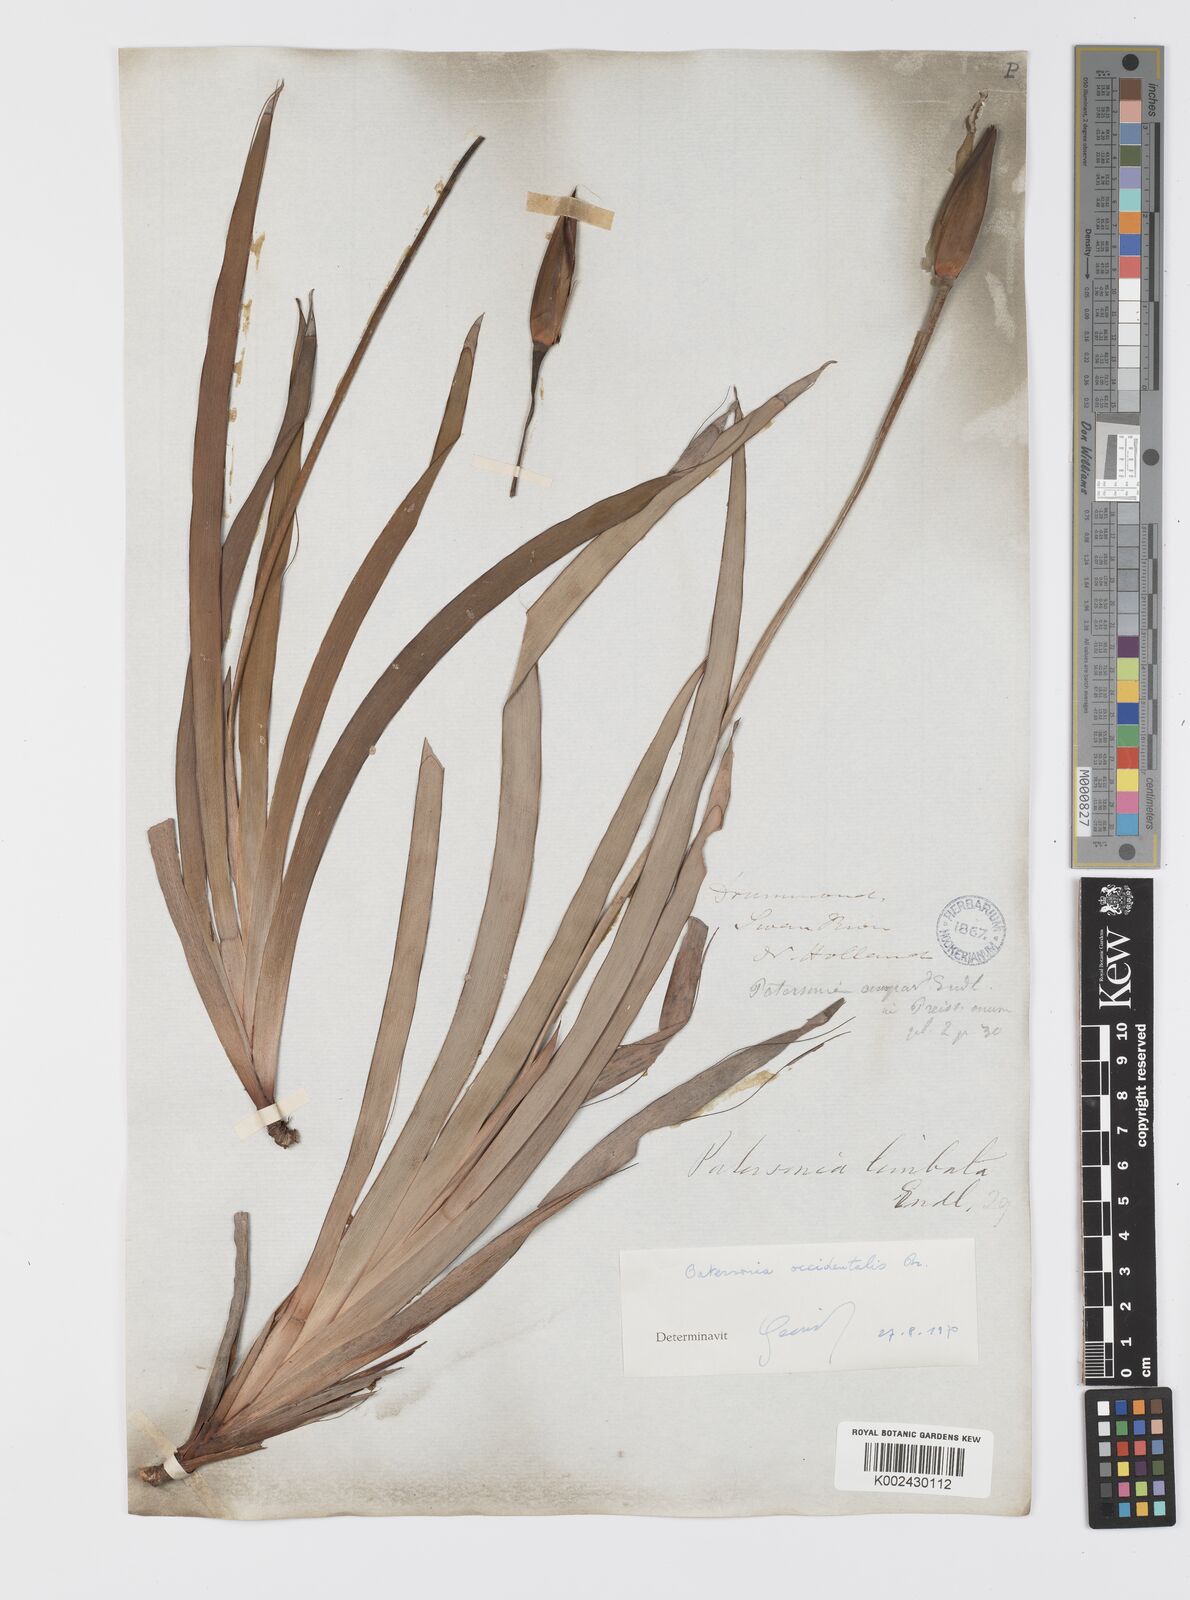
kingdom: Plantae
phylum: Tracheophyta
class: Liliopsida
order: Asparagales
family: Iridaceae
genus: Patersonia
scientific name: Patersonia limbata
